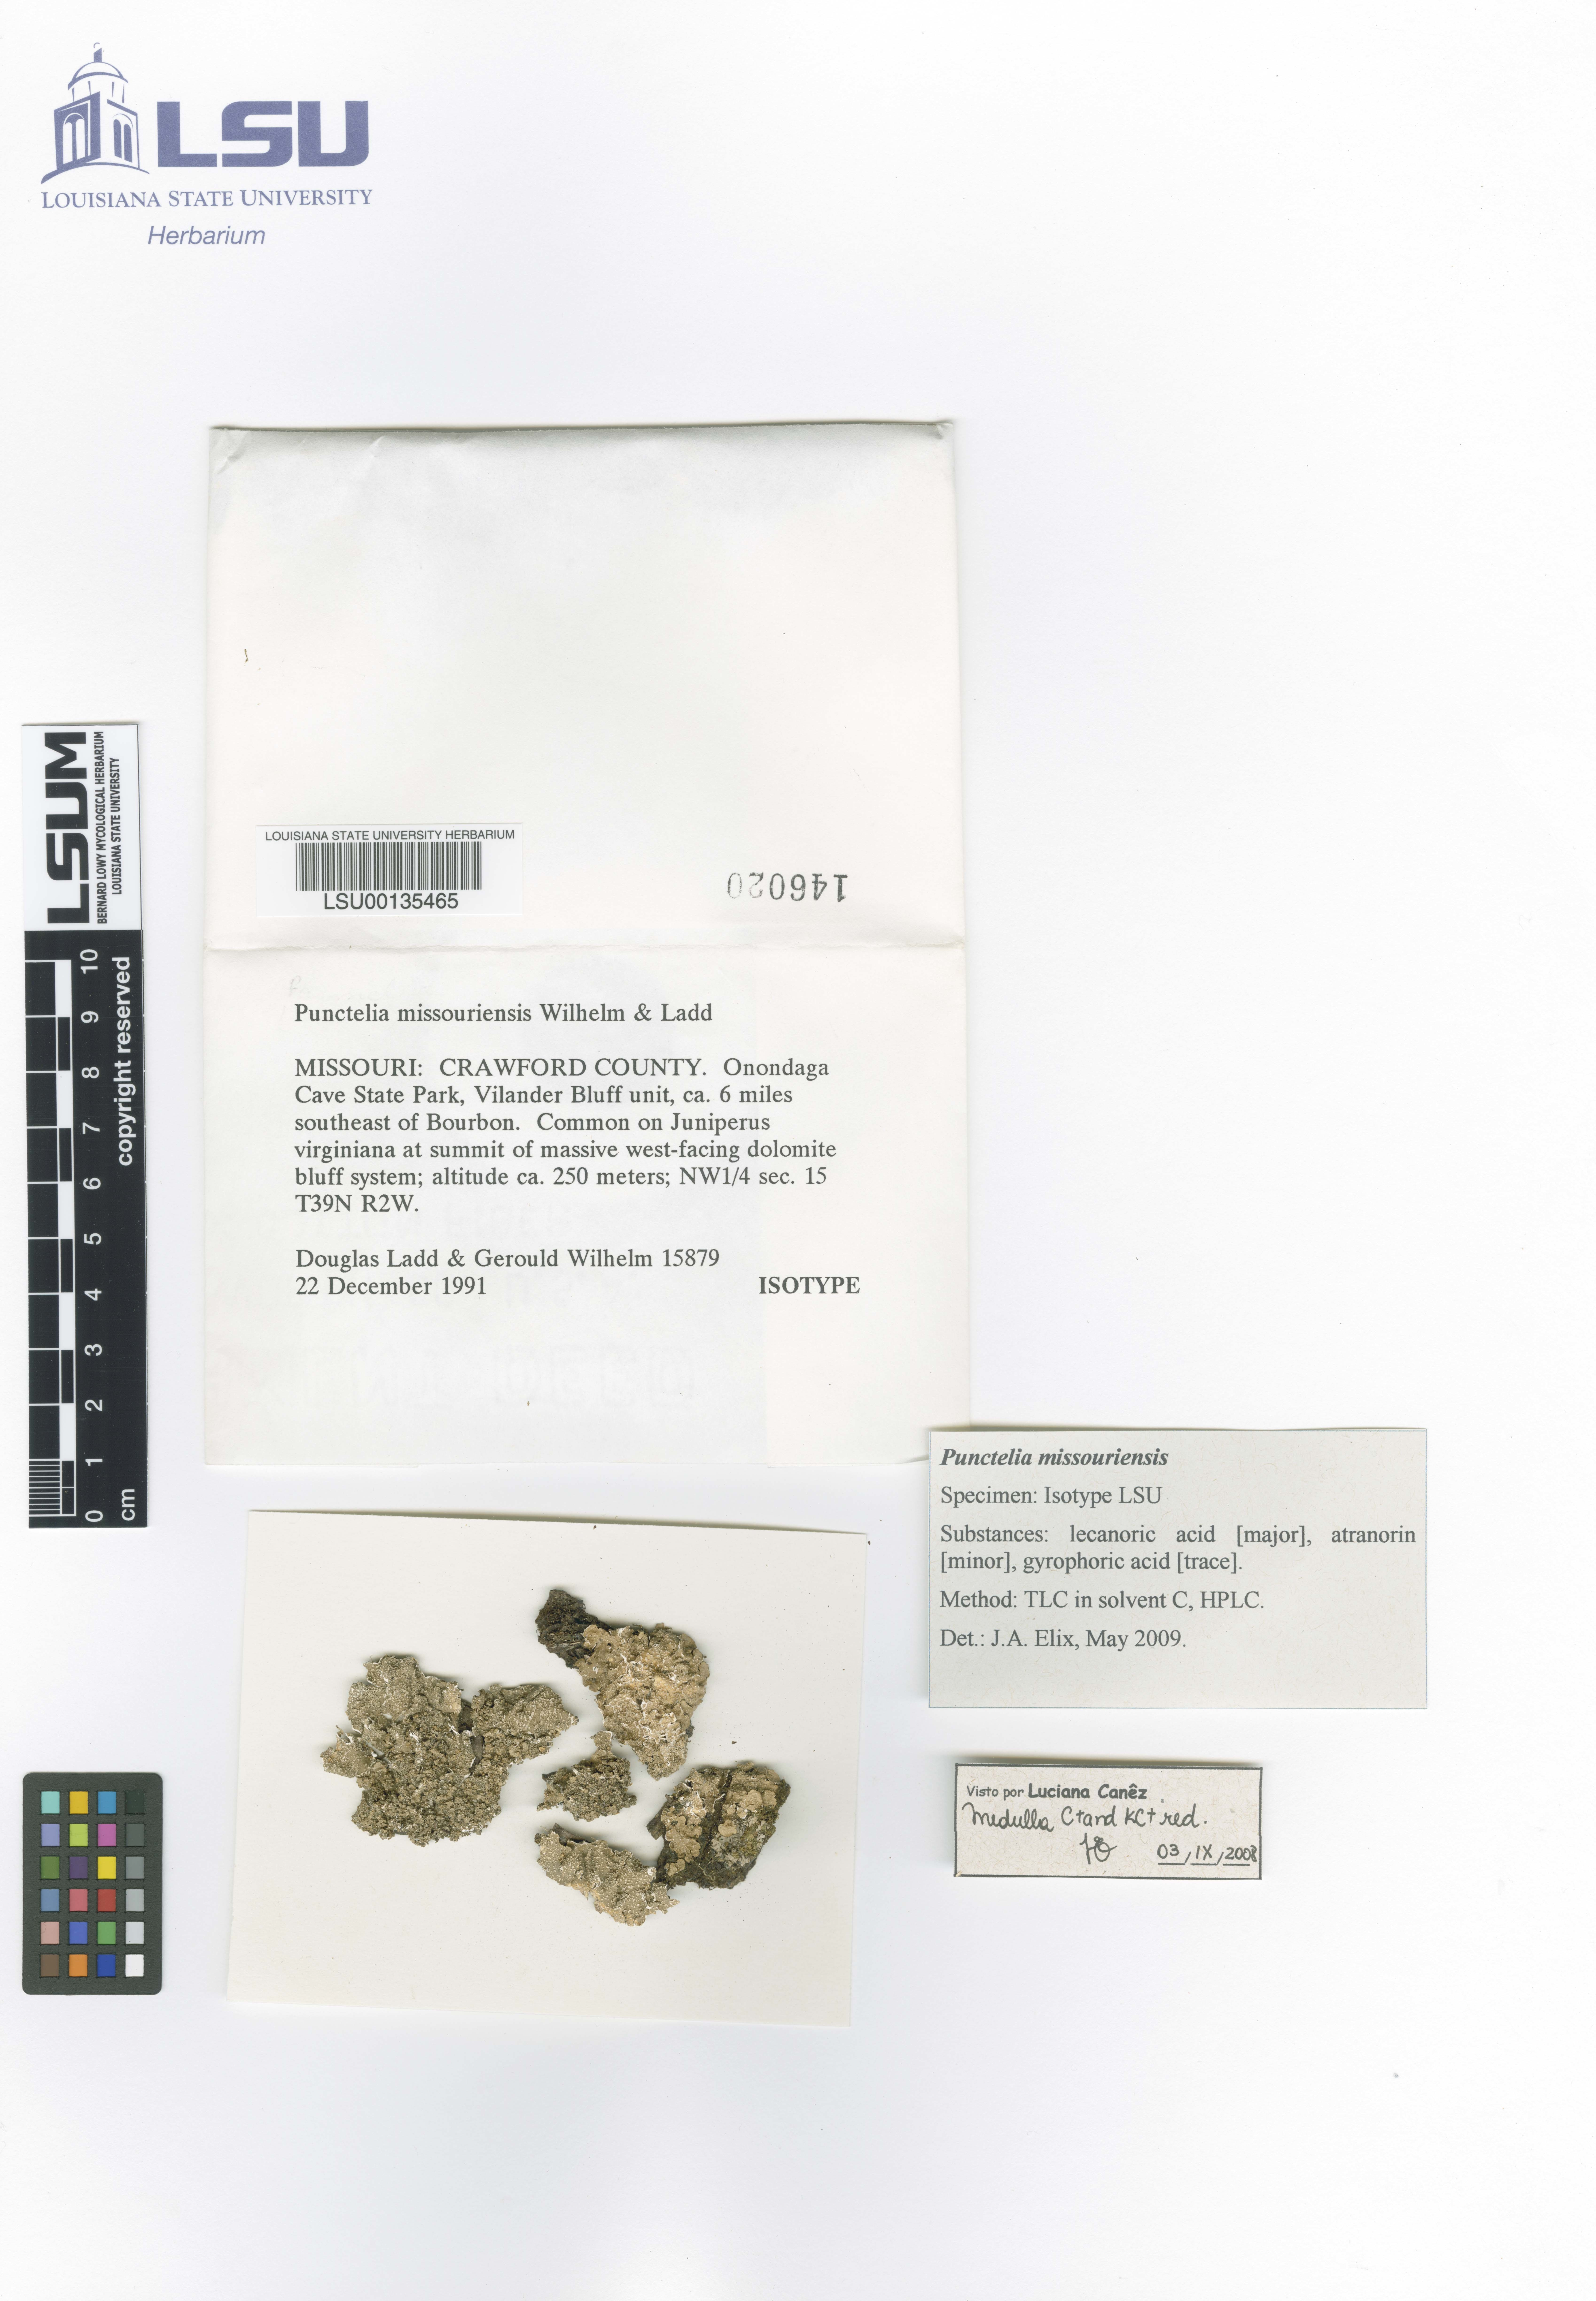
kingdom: Fungi
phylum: Ascomycota
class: Lecanoromycetes
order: Lecanorales
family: Parmeliaceae
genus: Punctelia
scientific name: Punctelia missouriensis
